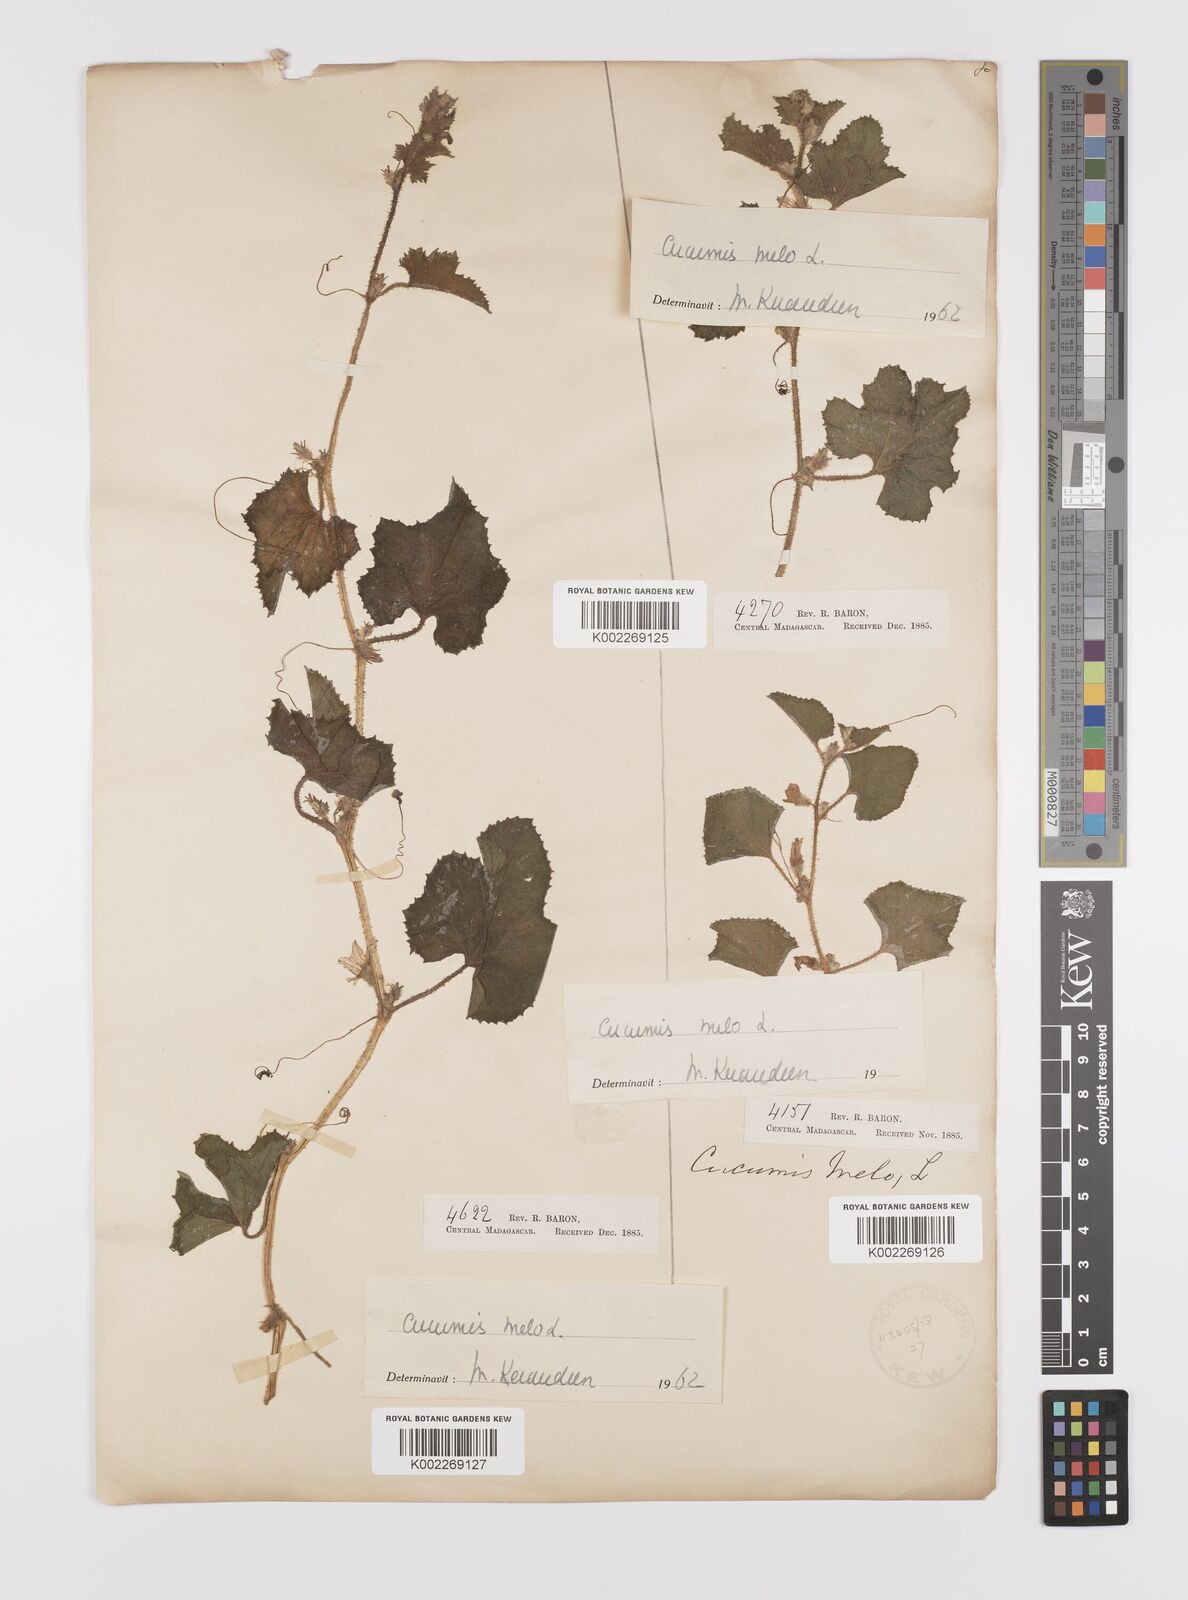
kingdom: Plantae
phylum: Tracheophyta
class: Magnoliopsida
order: Cucurbitales
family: Cucurbitaceae
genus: Cucumis
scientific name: Cucumis melo
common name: Melon
